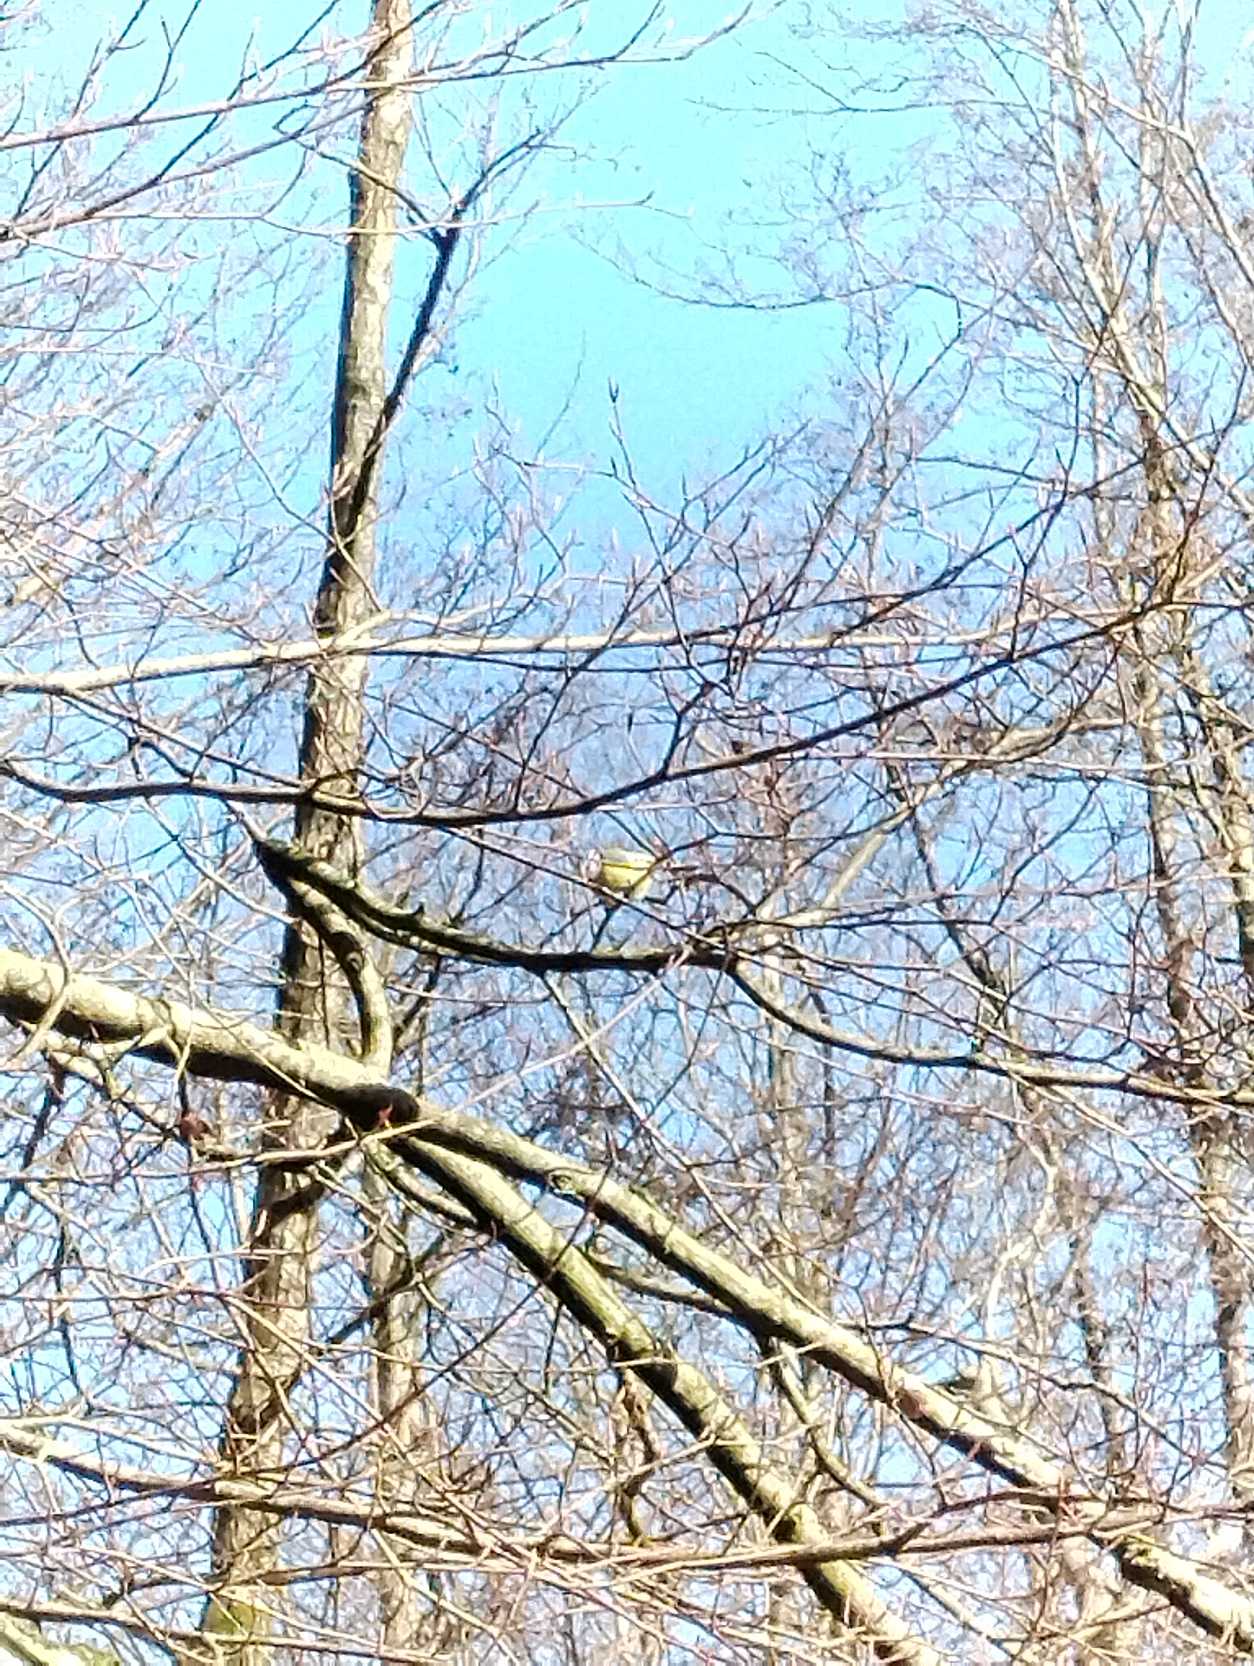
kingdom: Animalia
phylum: Chordata
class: Aves
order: Passeriformes
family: Paridae
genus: Cyanistes
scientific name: Cyanistes caeruleus
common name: Blåmejse
